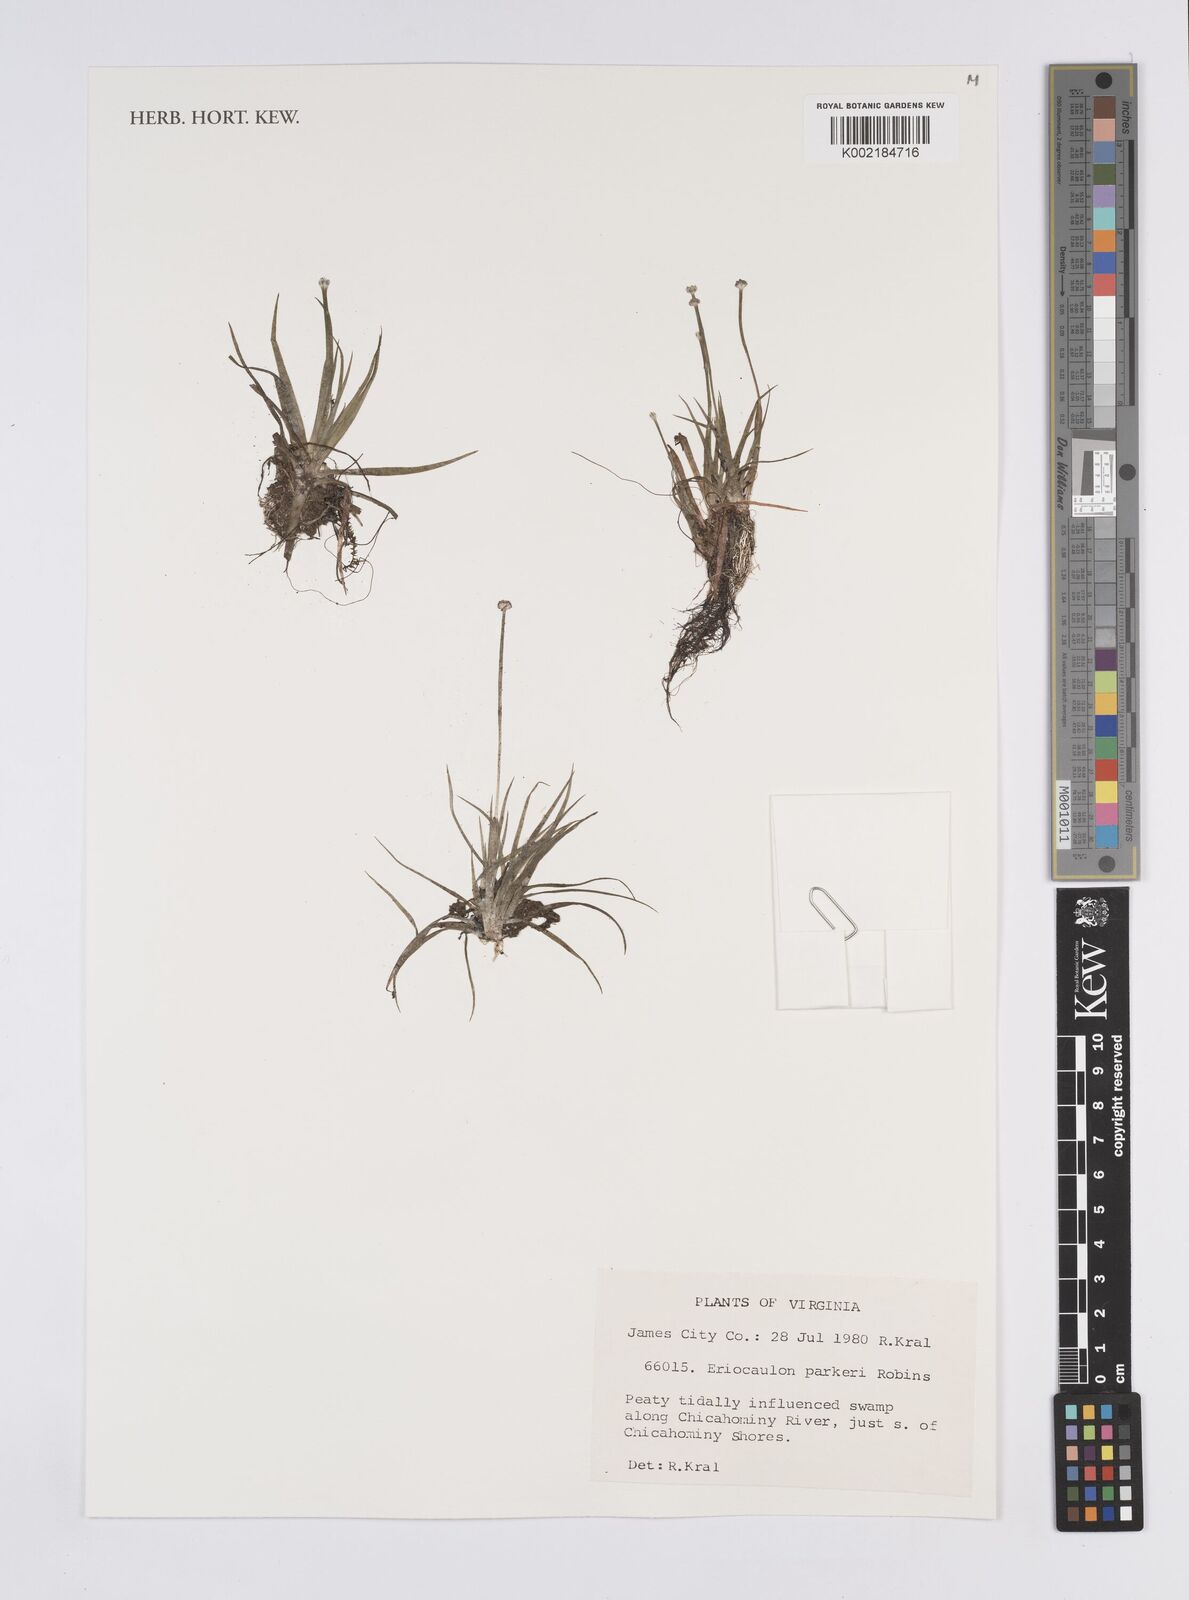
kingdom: Plantae
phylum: Tracheophyta
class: Liliopsida
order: Poales
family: Eriocaulaceae
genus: Eriocaulon
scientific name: Eriocaulon parkeri
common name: Parker's pipewort
